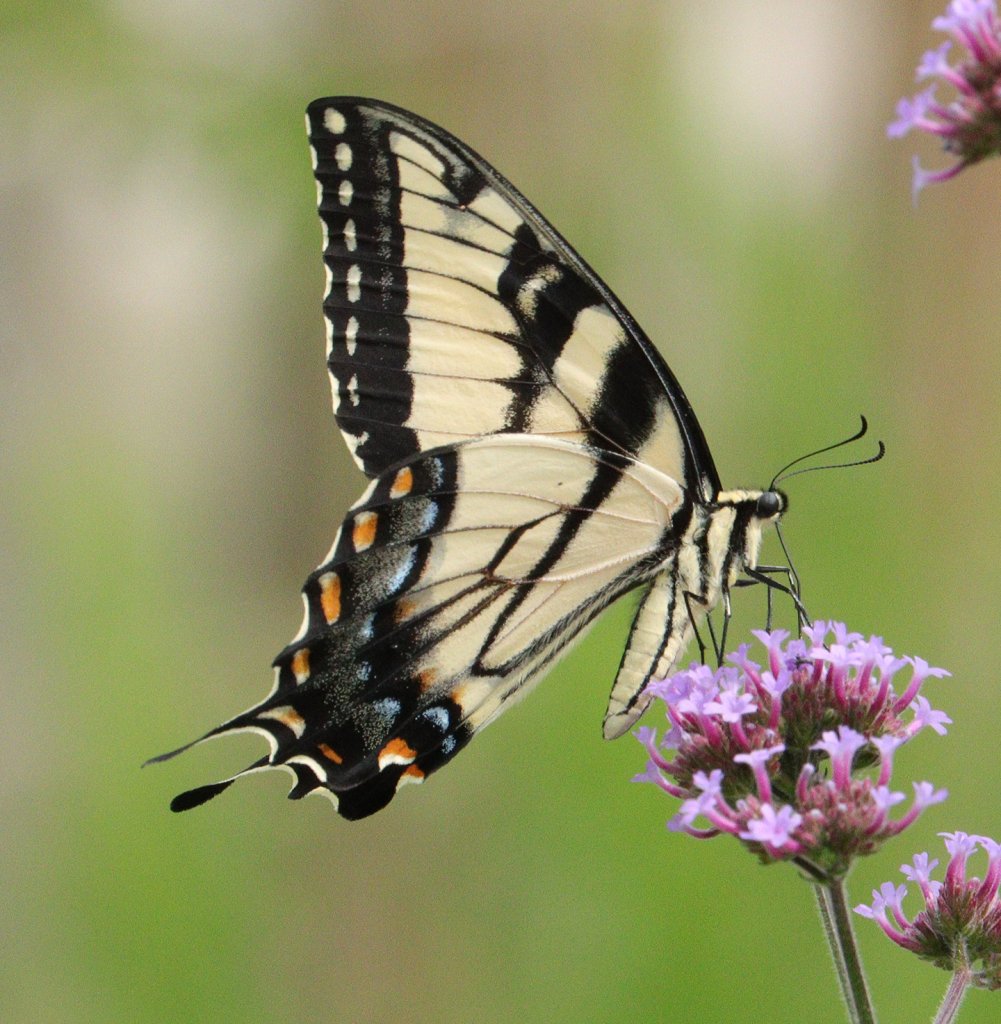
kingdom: Animalia
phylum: Arthropoda
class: Insecta
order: Lepidoptera
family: Papilionidae
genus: Pterourus
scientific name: Pterourus glaucus
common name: Eastern Tiger Swallowtail
